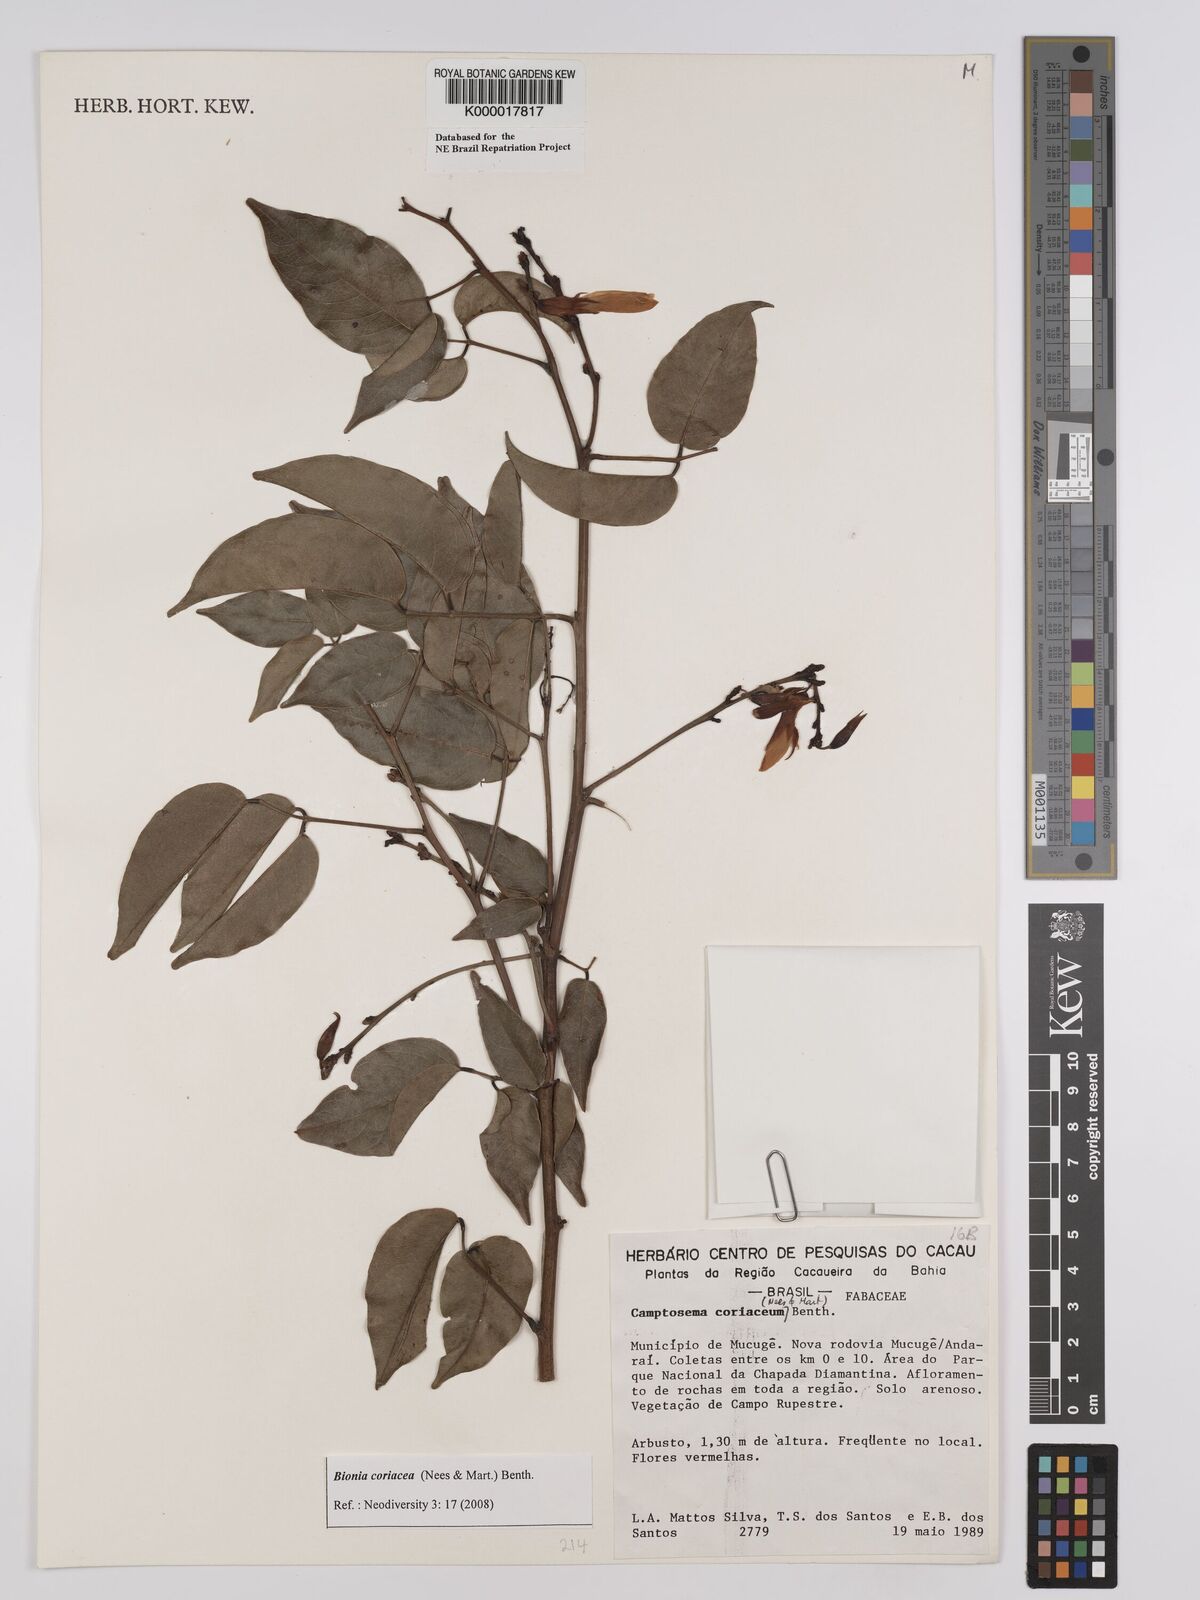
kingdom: Plantae
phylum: Tracheophyta
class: Magnoliopsida
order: Fabales
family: Fabaceae
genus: Camptosema
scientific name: Camptosema coriaceum
